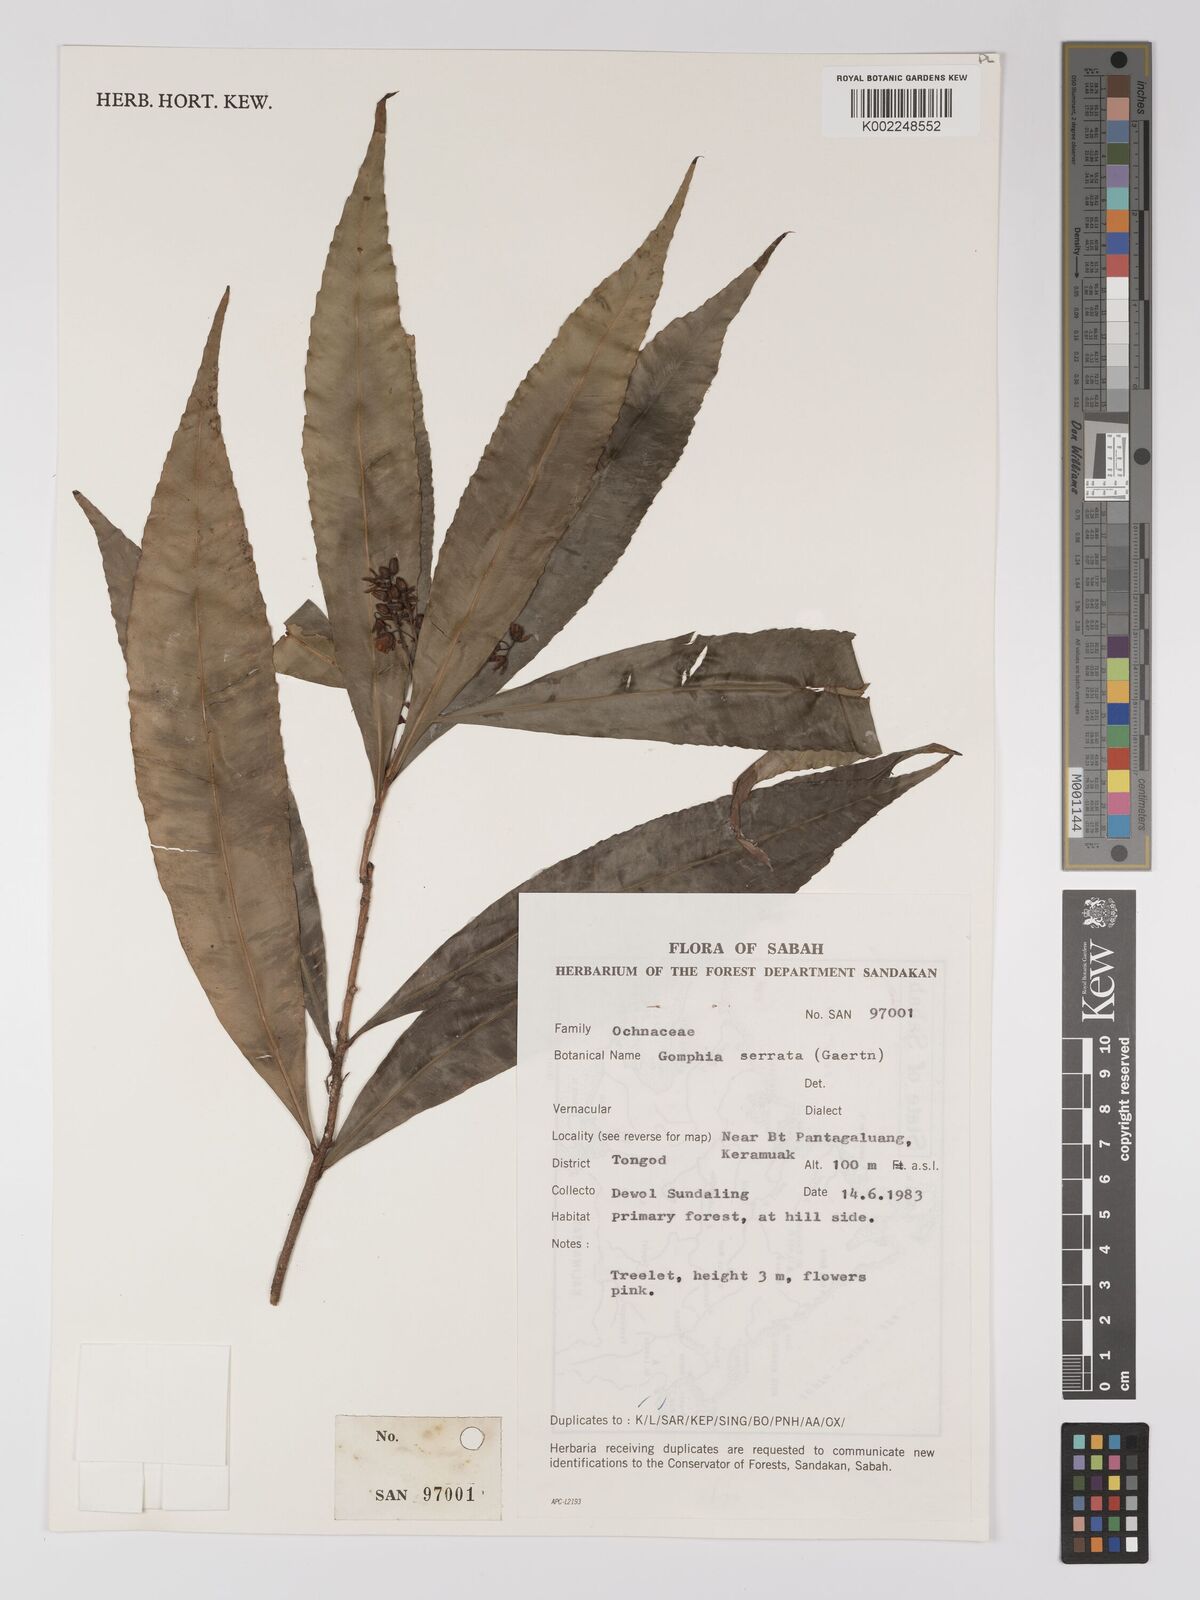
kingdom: Plantae
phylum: Tracheophyta
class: Magnoliopsida
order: Malpighiales
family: Ochnaceae
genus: Gomphia
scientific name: Gomphia serrata
